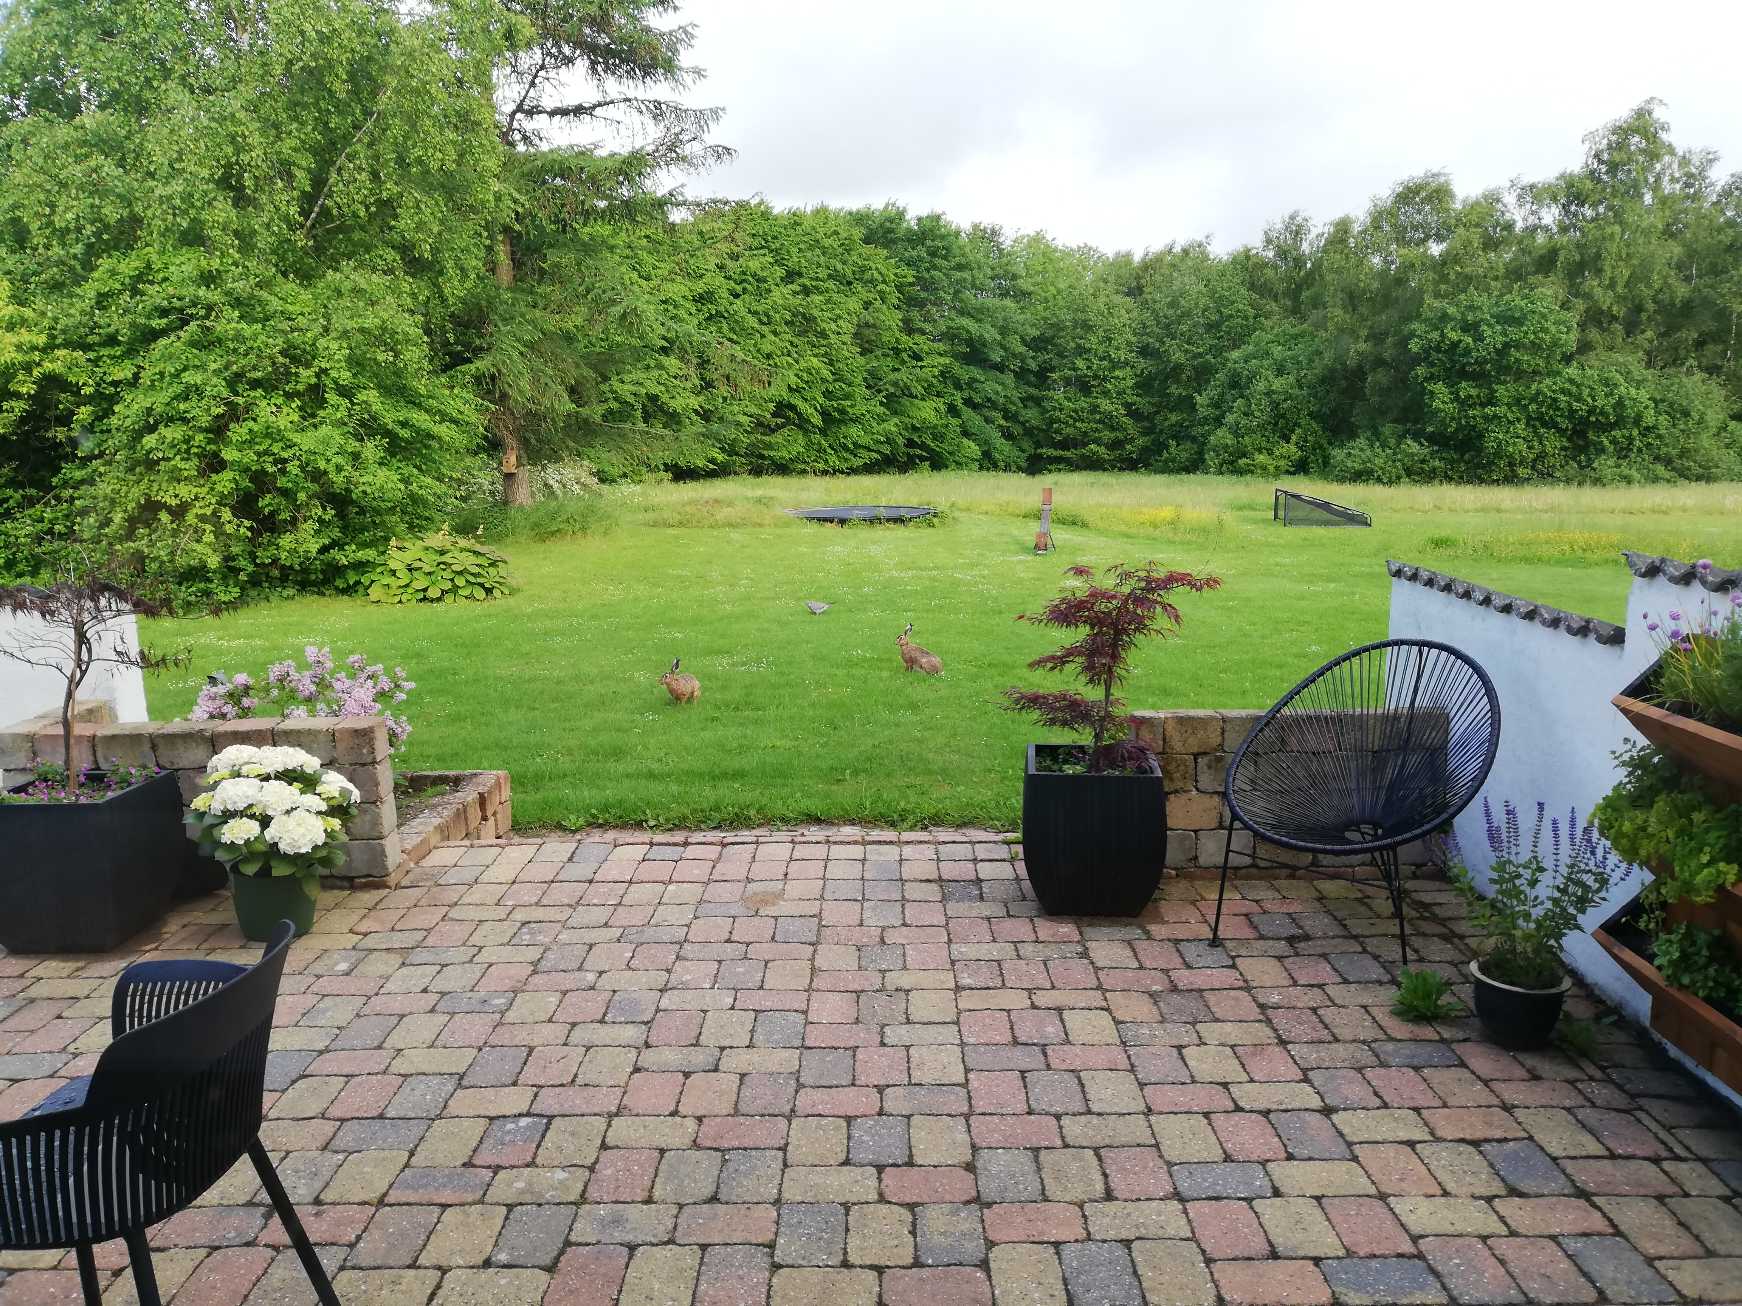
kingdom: Animalia
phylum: Chordata
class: Mammalia
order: Lagomorpha
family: Leporidae
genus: Lepus
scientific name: Lepus europaeus
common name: Hare
